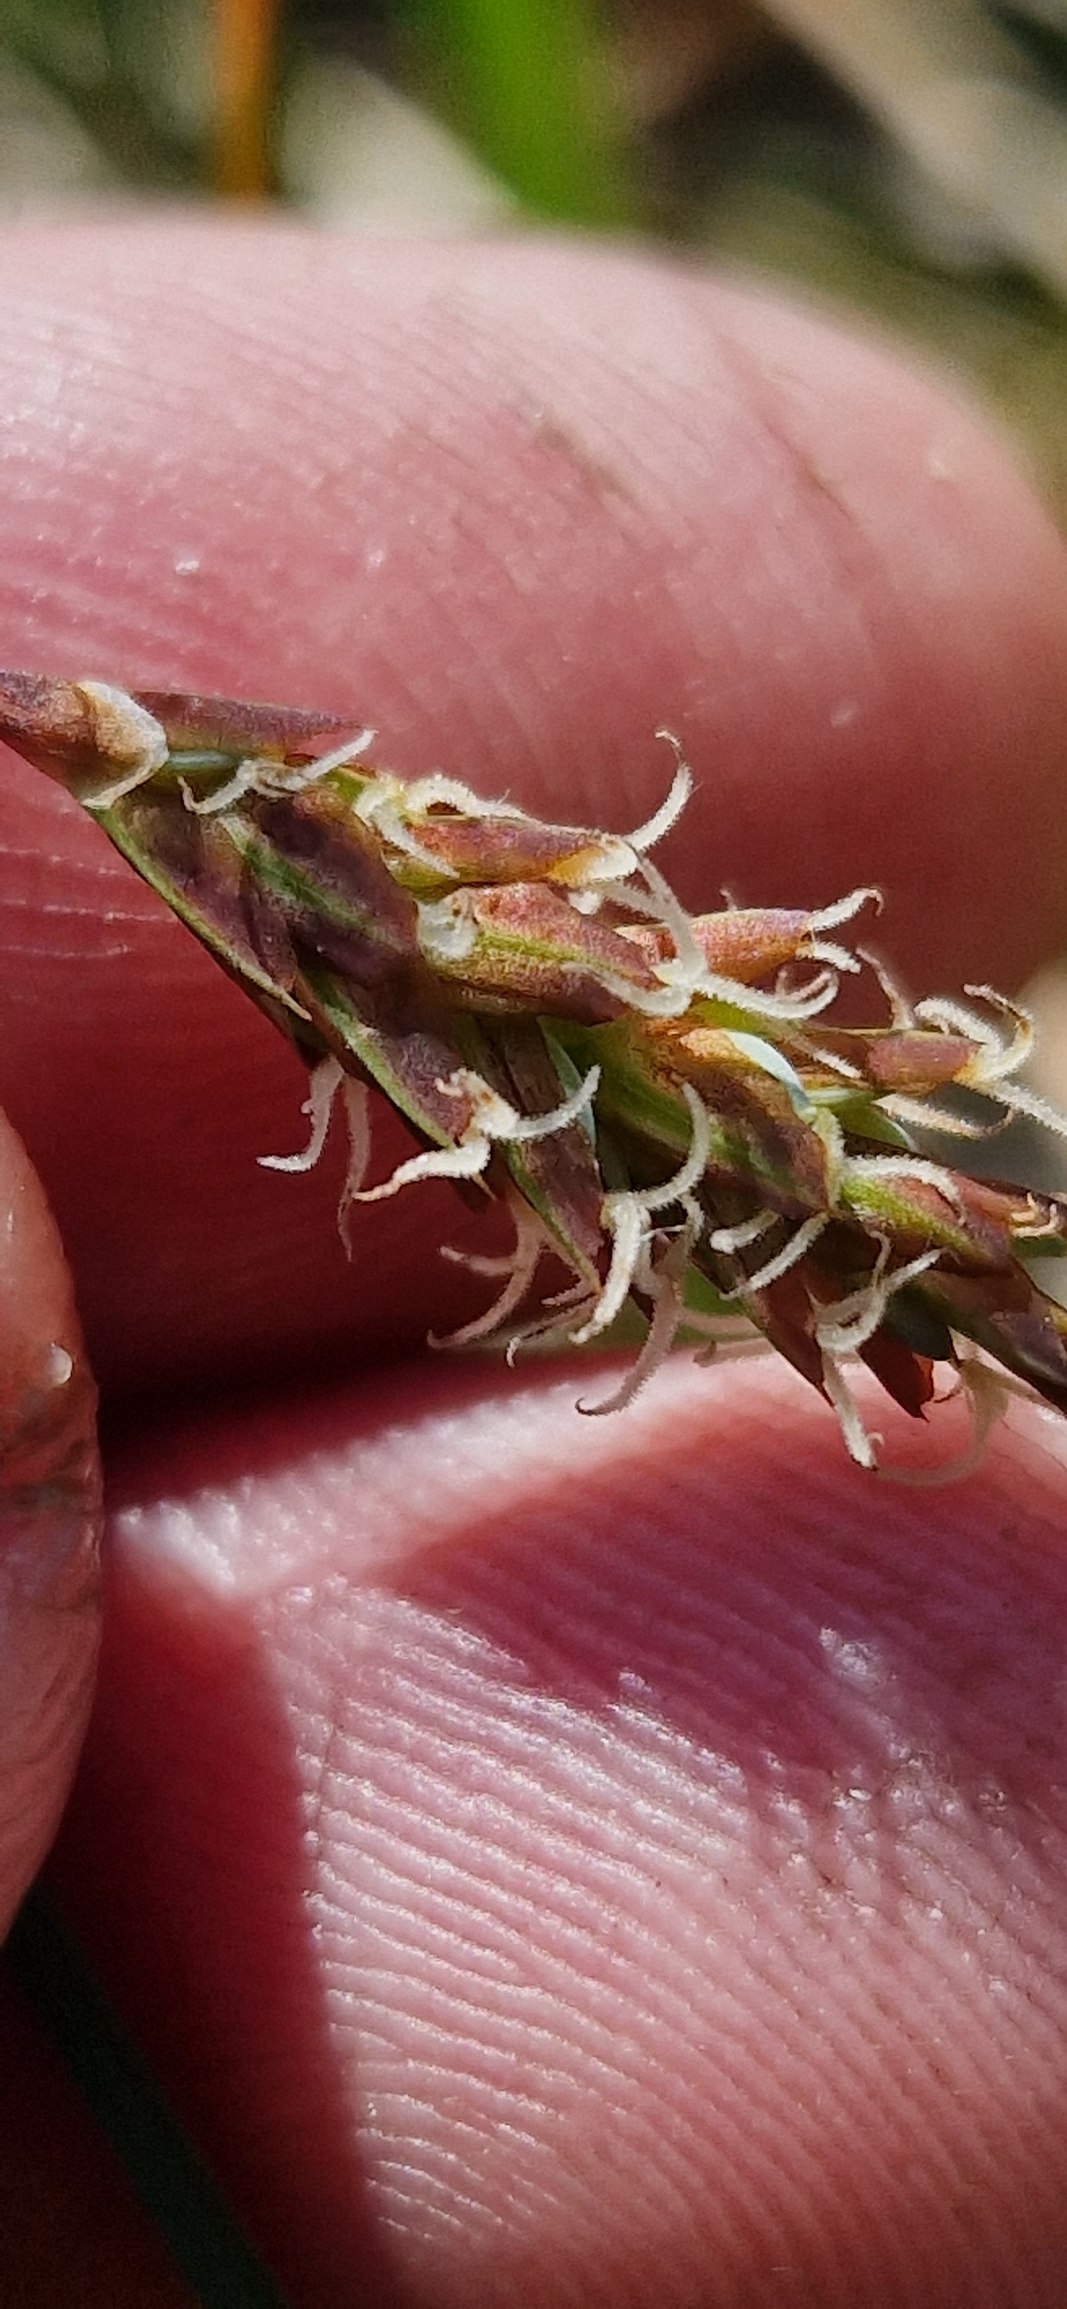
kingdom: Plantae
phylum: Tracheophyta
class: Liliopsida
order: Poales
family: Cyperaceae
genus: Carex
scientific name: Carex limosa
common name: Dynd-star
